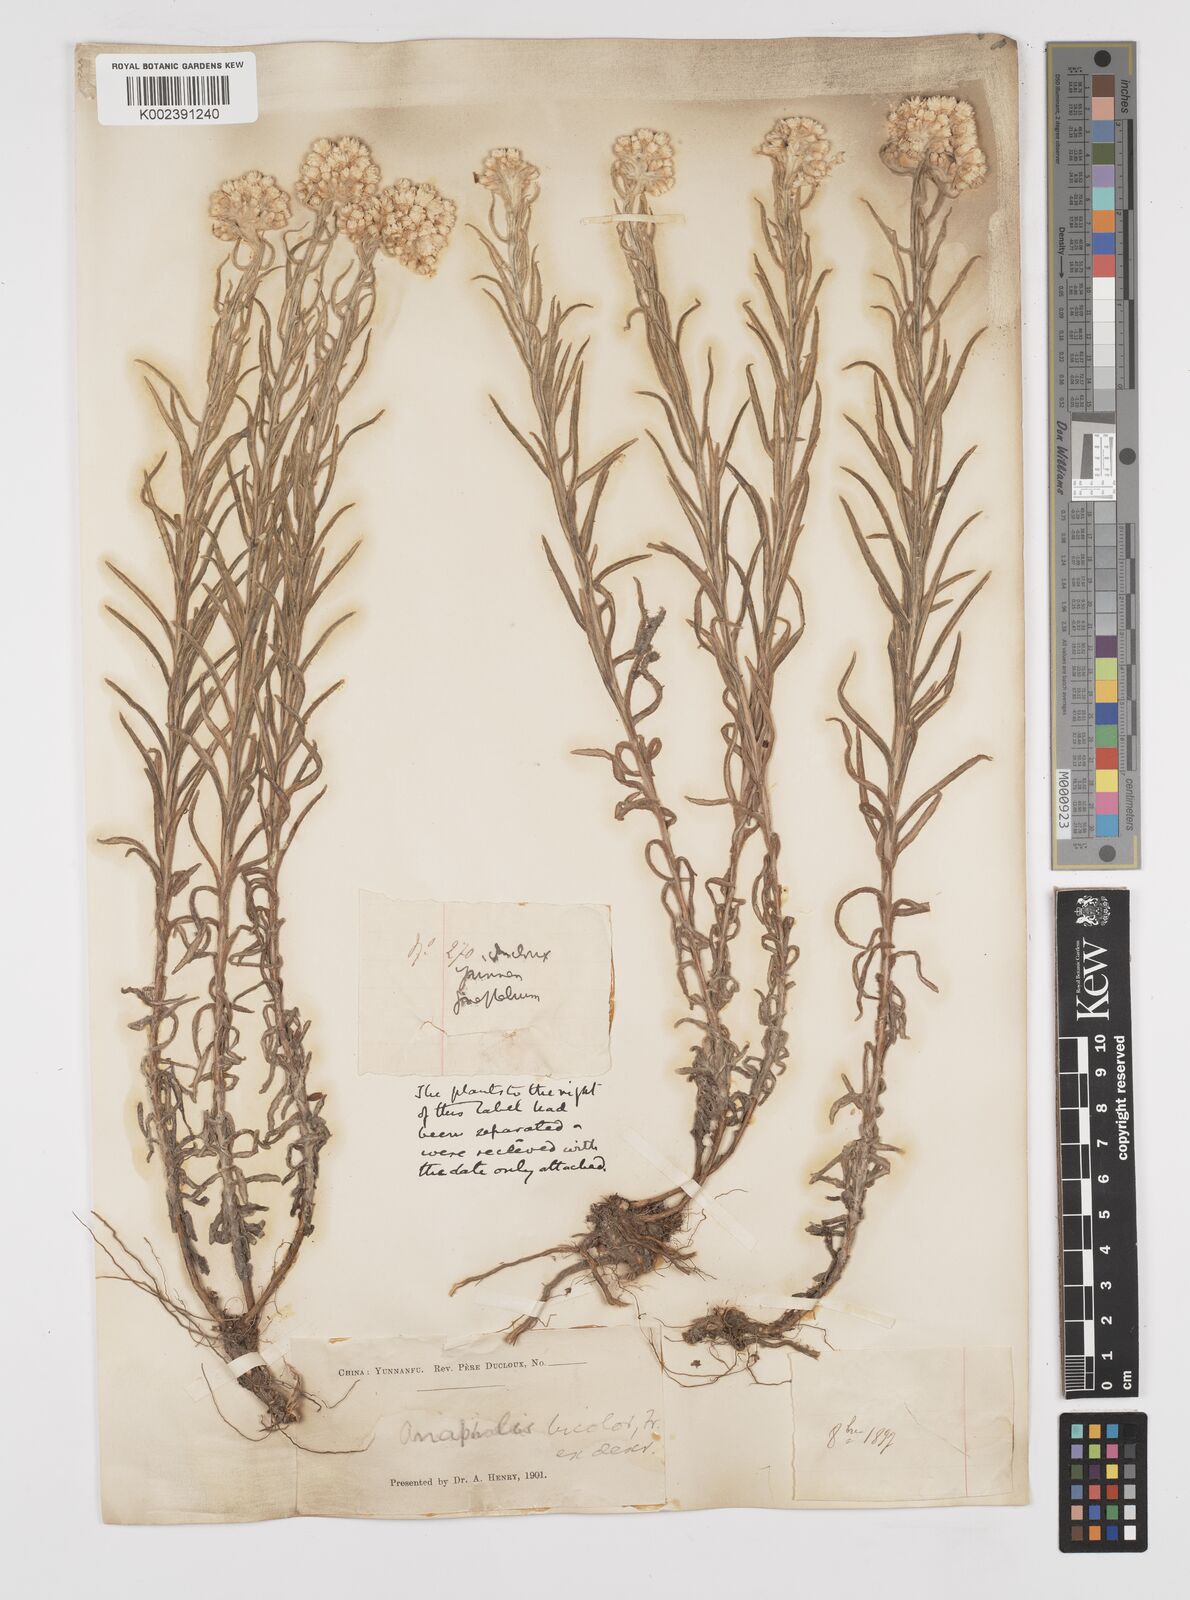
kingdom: Plantae
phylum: Tracheophyta
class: Magnoliopsida
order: Asterales
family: Asteraceae
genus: Anaphalis
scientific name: Anaphalis bicolor
